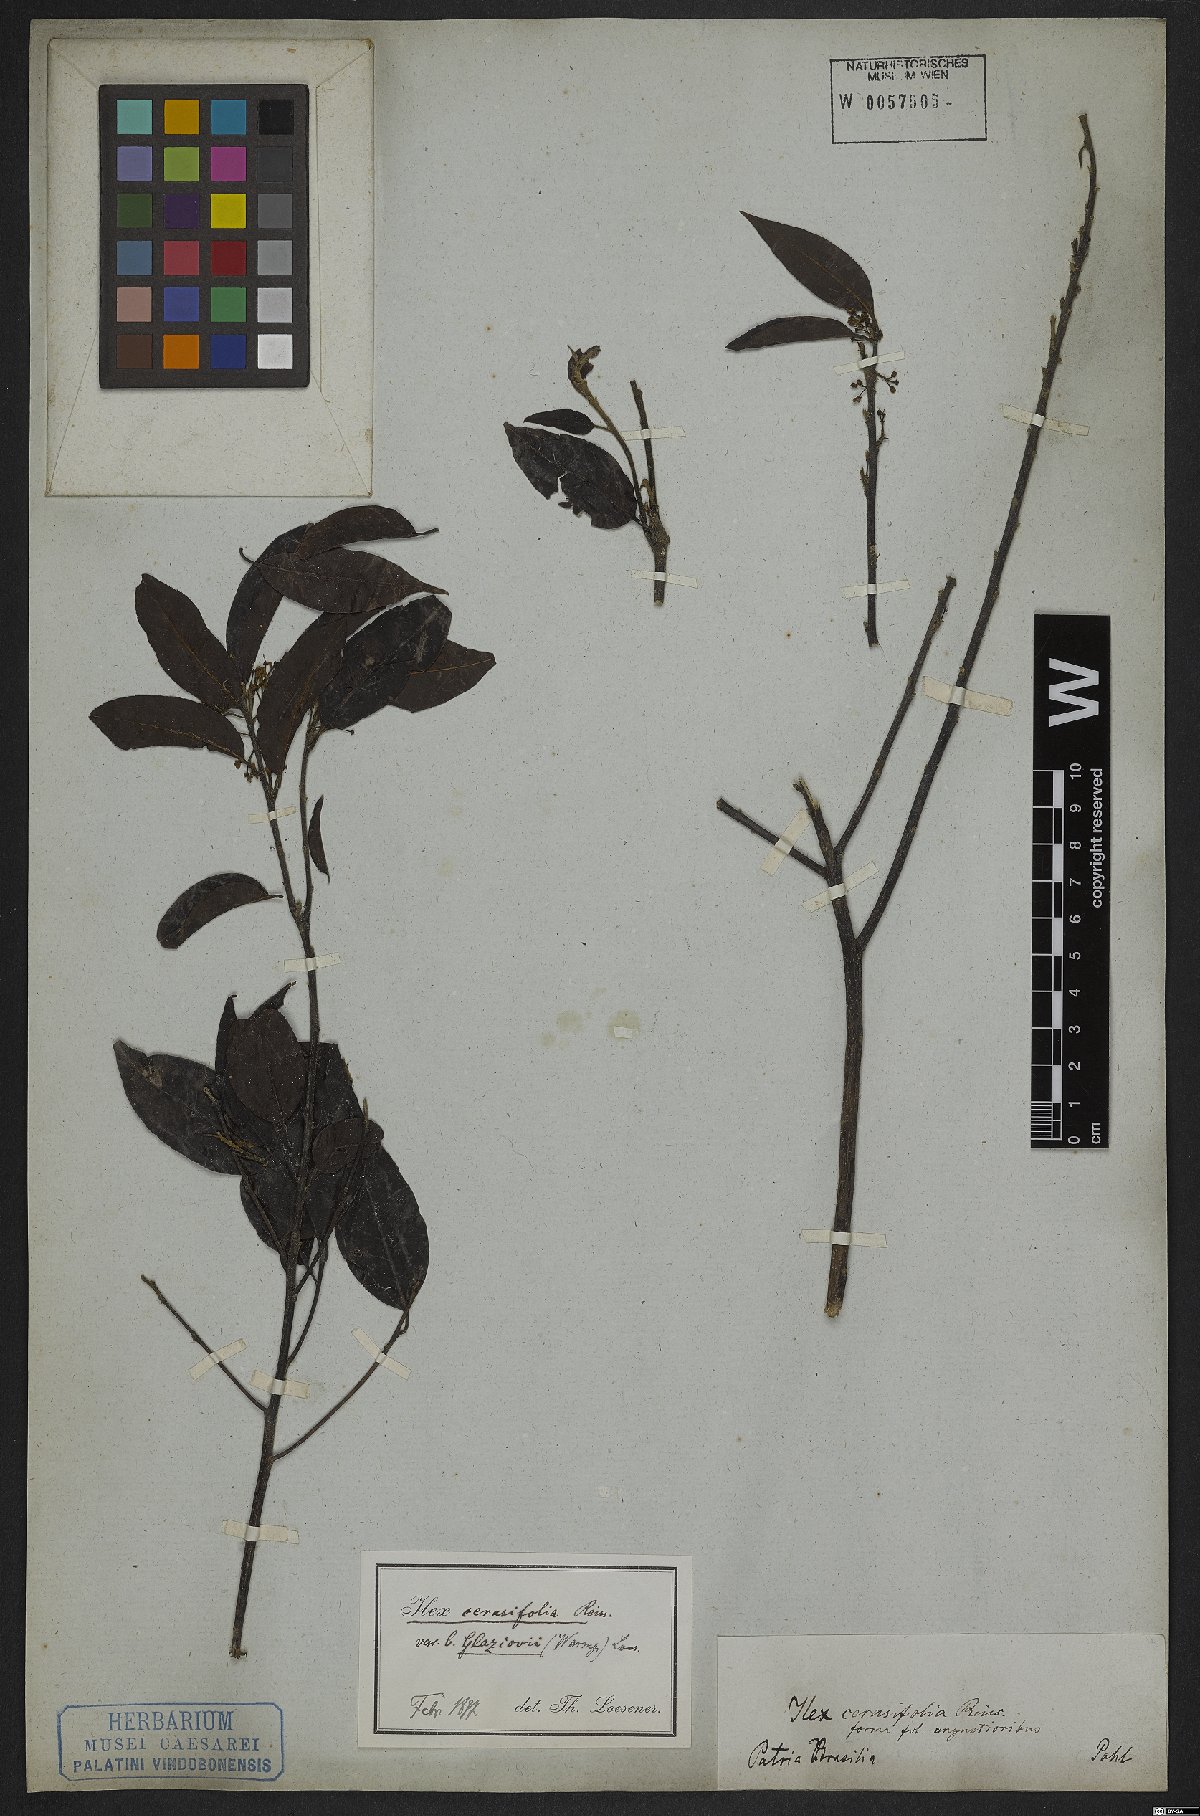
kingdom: Plantae
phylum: Tracheophyta
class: Magnoliopsida
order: Aquifoliales
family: Aquifoliaceae
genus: Ilex
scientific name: Ilex cerasifolia
